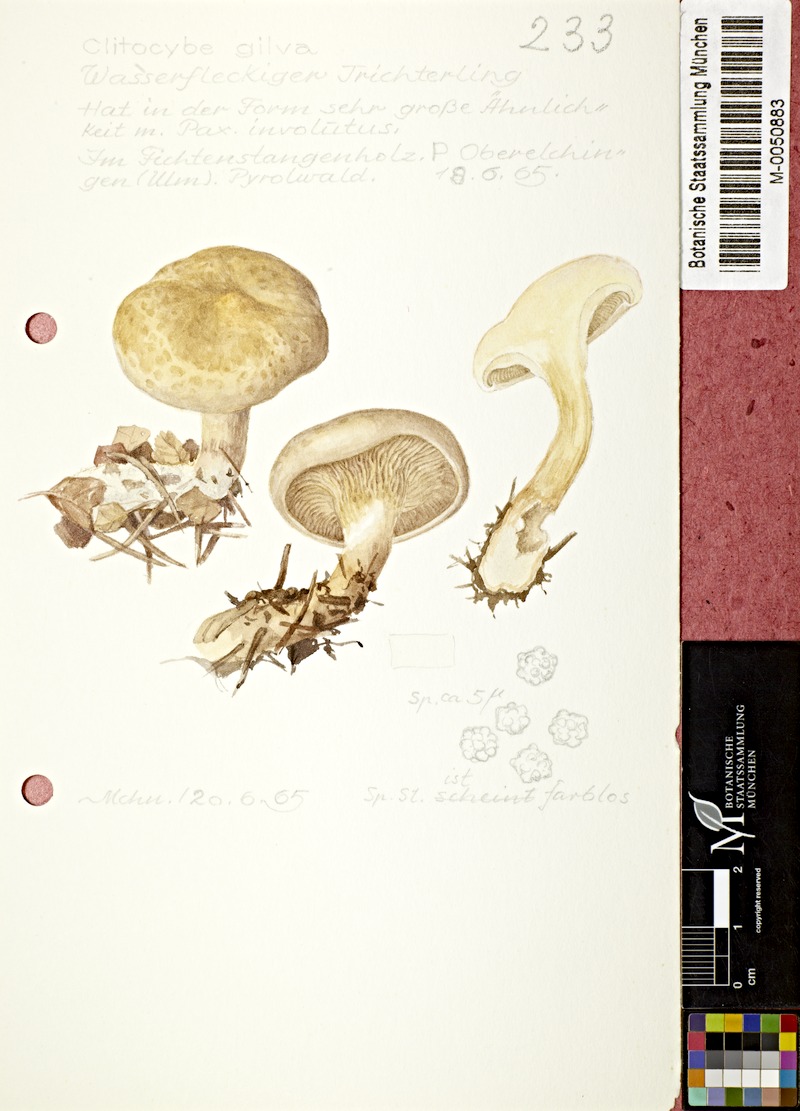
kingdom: Fungi
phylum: Basidiomycota
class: Agaricomycetes
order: Agaricales
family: Tricholomataceae
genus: Paralepista
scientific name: Paralepista gilva
